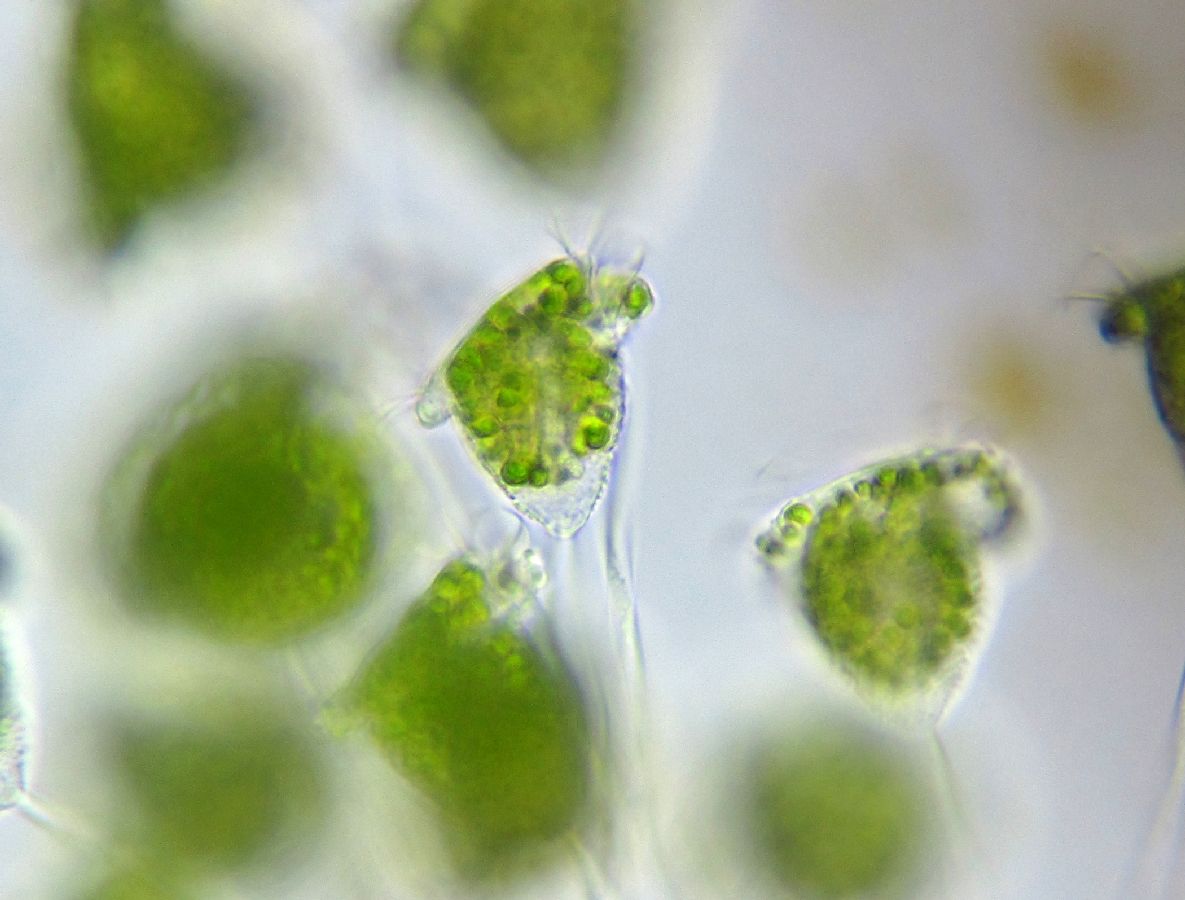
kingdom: Chromista
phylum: Ciliophora
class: Oligohymenophorea
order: Peritrichida
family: Vorticellidae
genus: Vorticella
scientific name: Vorticella chlorostigma
